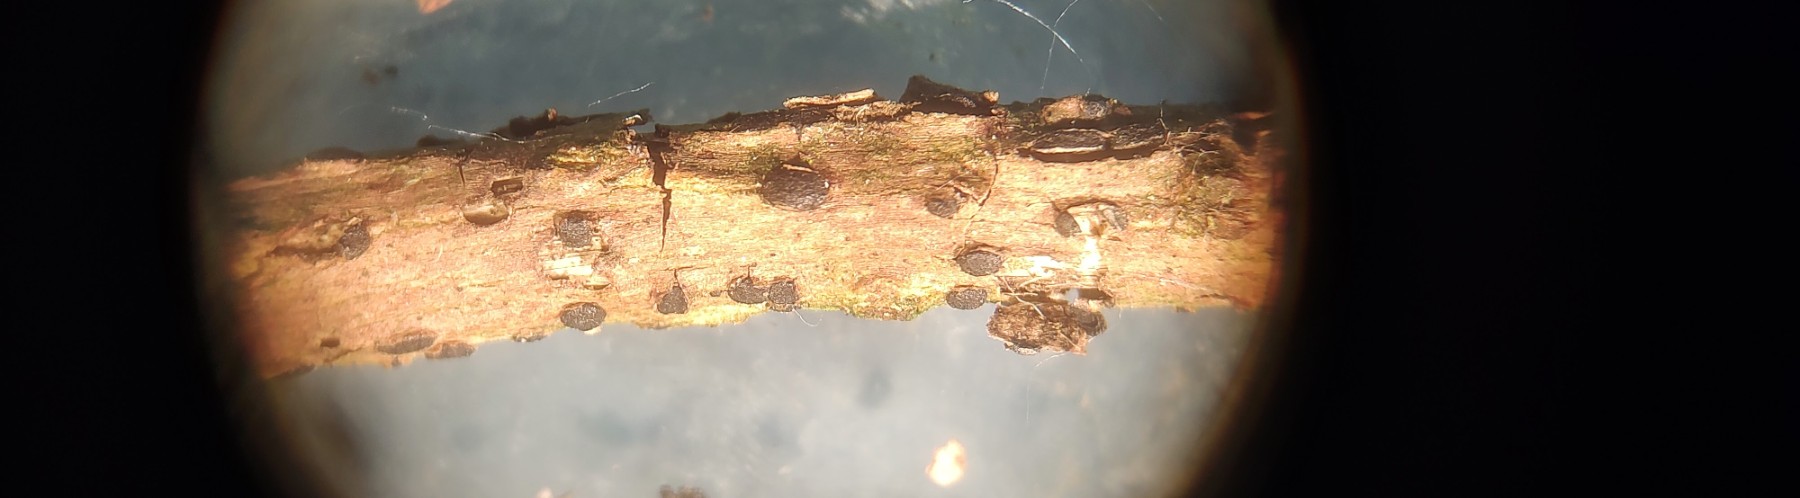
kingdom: Fungi
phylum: Ascomycota
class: Dothideomycetes
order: Dothideales
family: Dothideaceae
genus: Dothidea
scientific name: Dothidea sambuci
